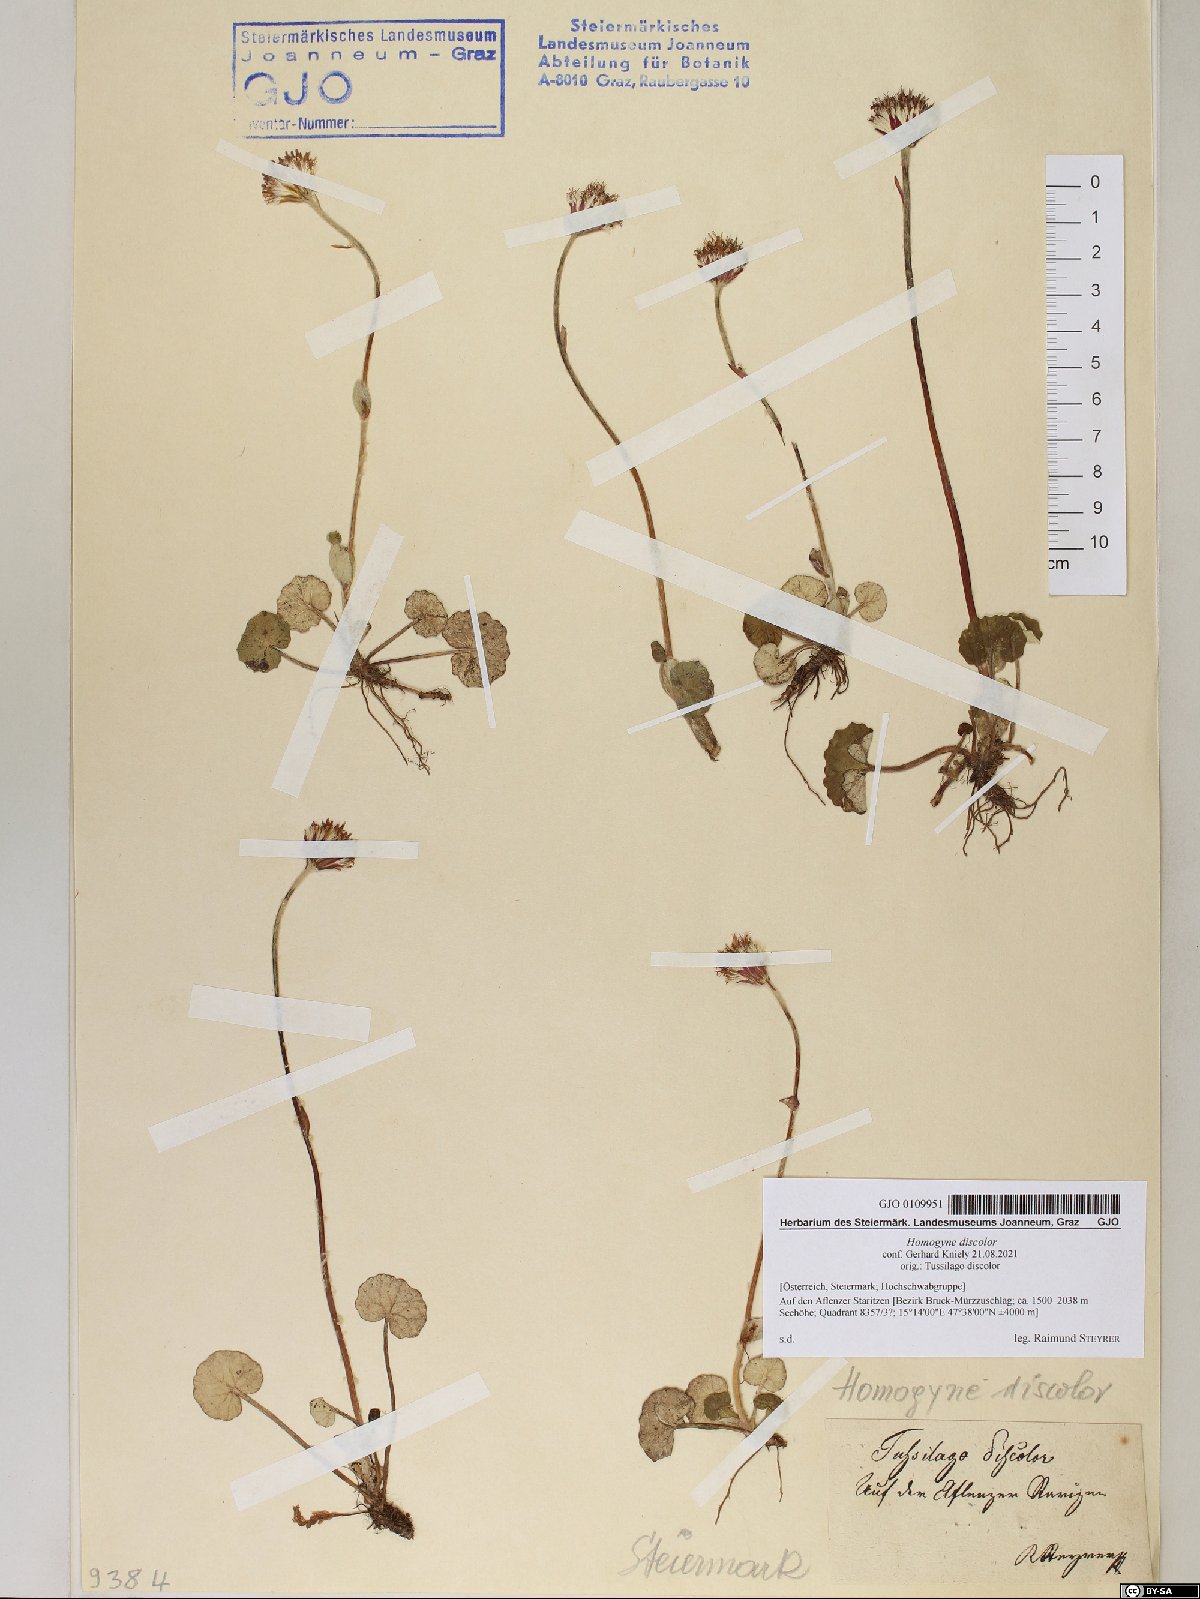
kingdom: Plantae
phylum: Tracheophyta
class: Magnoliopsida
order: Asterales
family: Asteraceae
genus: Homogyne
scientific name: Homogyne discolor
